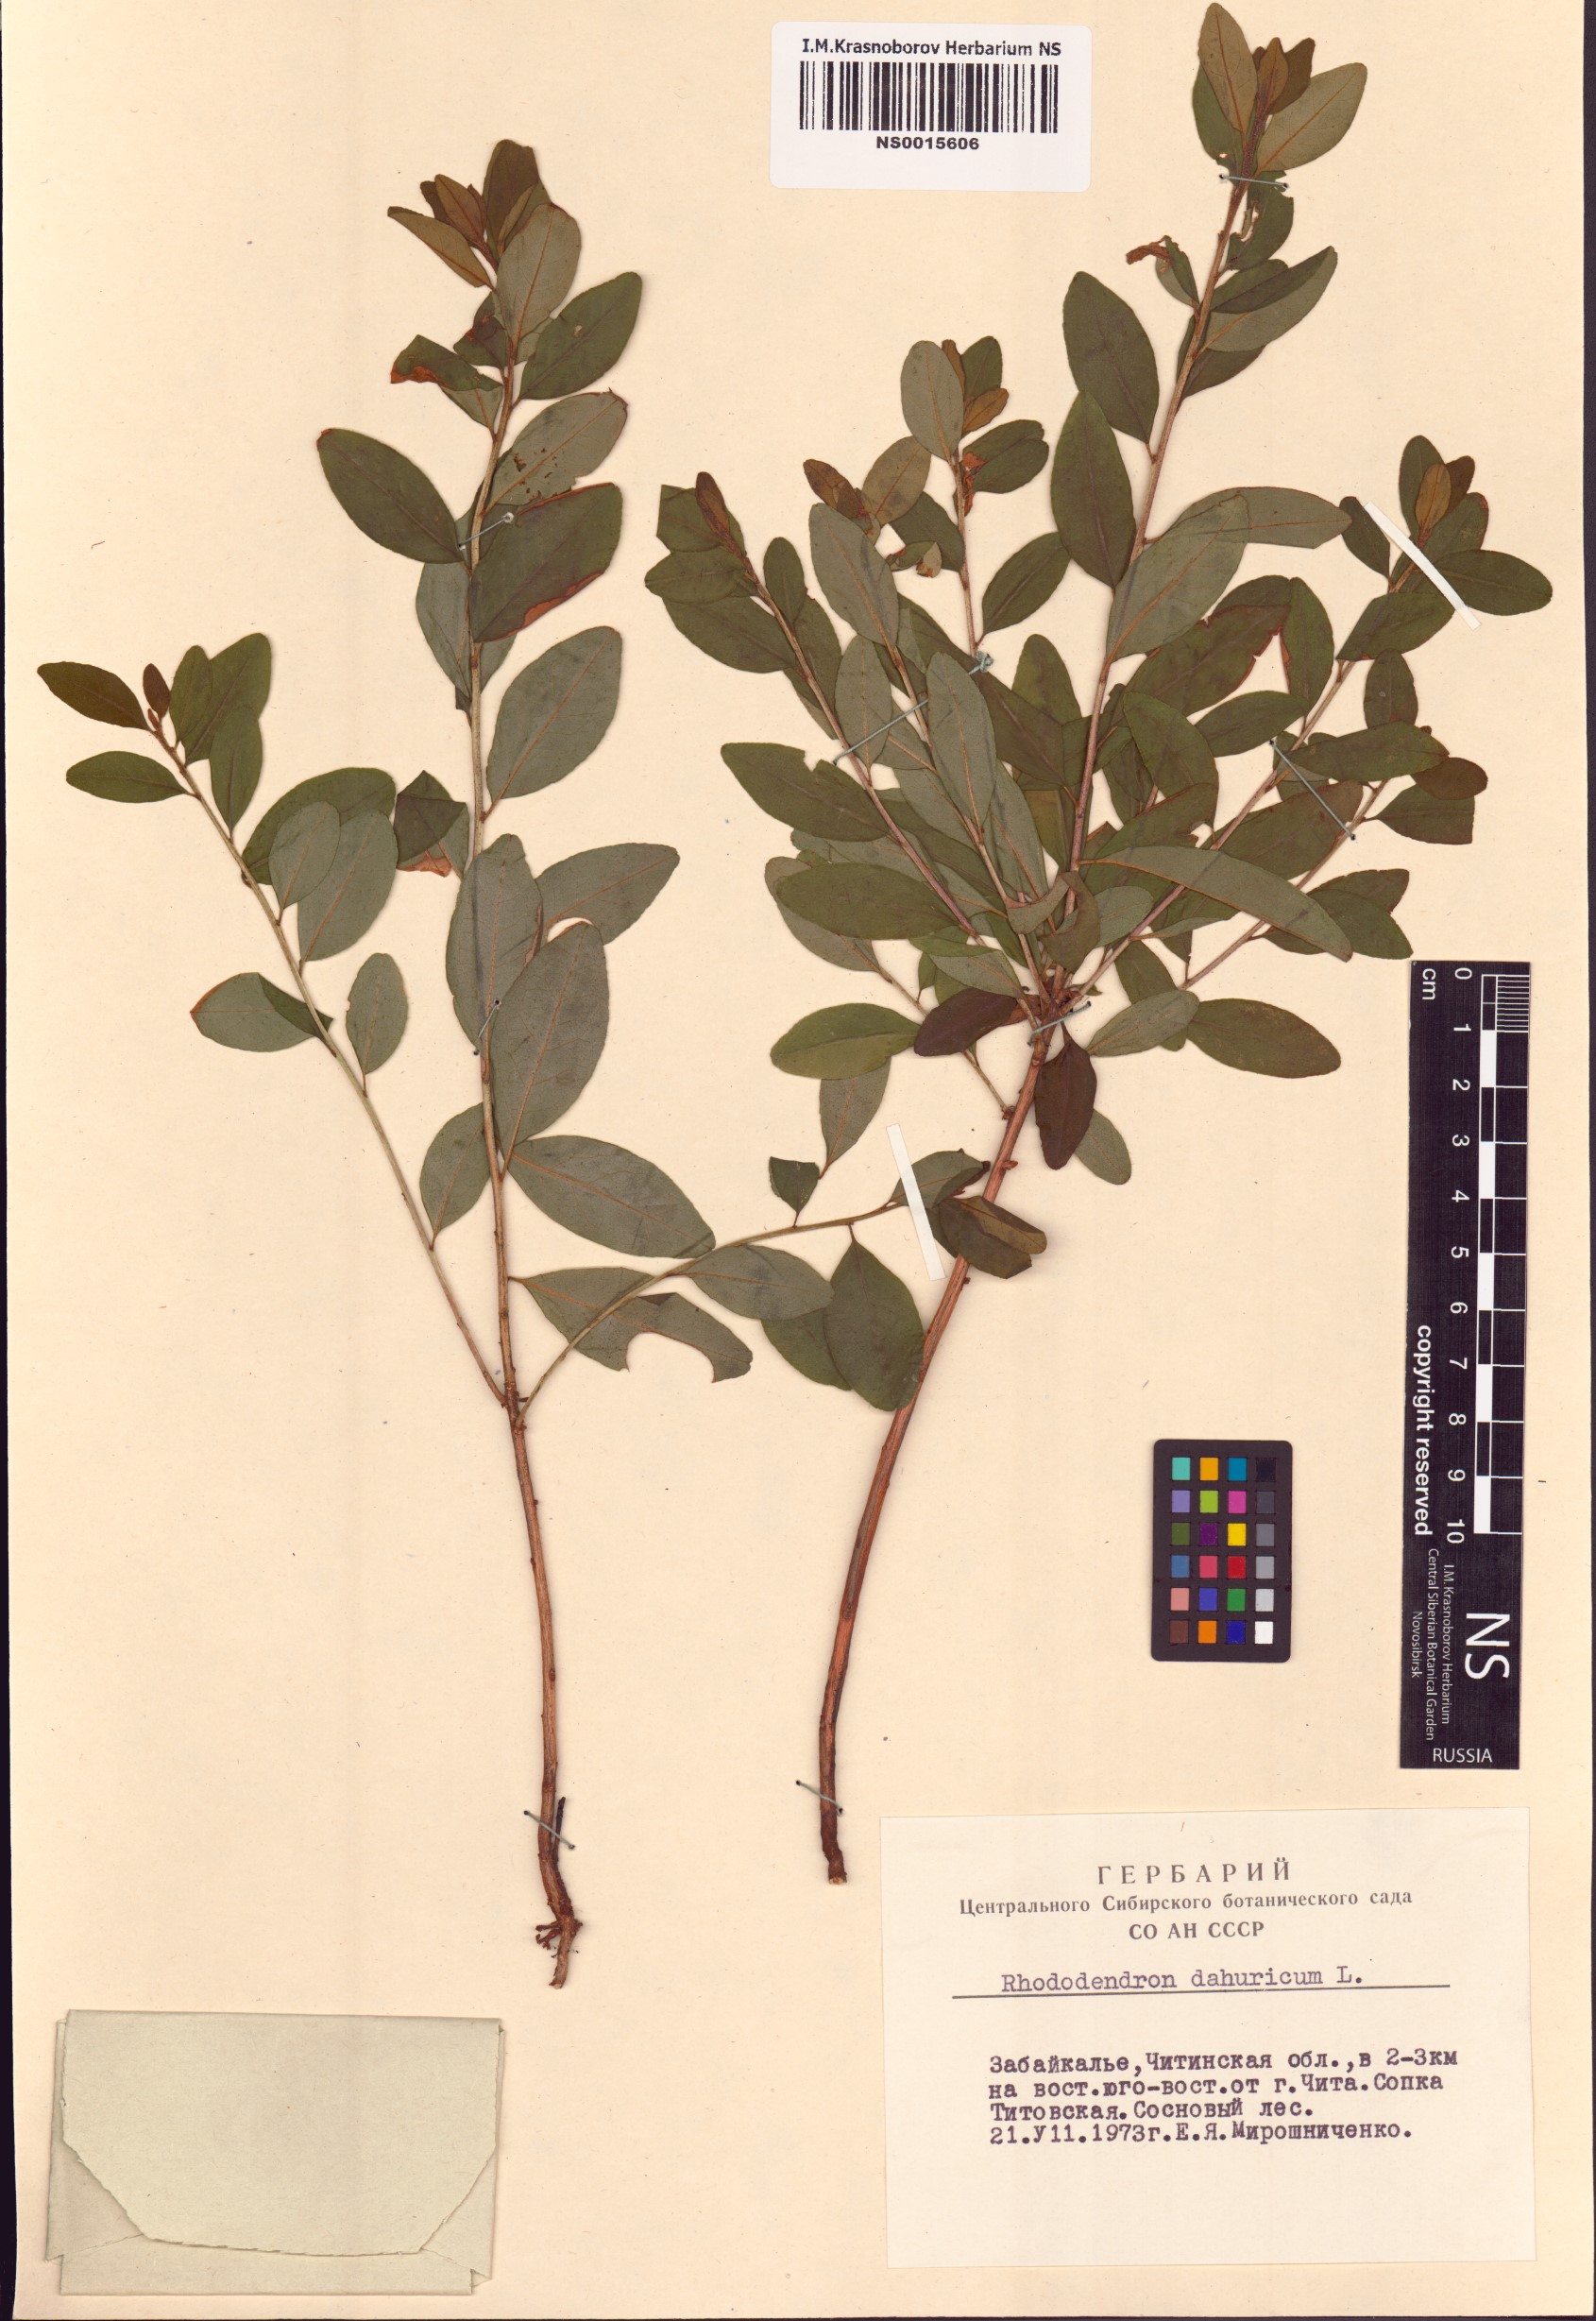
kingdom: Plantae
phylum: Tracheophyta
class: Magnoliopsida
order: Ericales
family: Ericaceae
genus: Rhododendron
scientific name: Rhododendron dauricum
